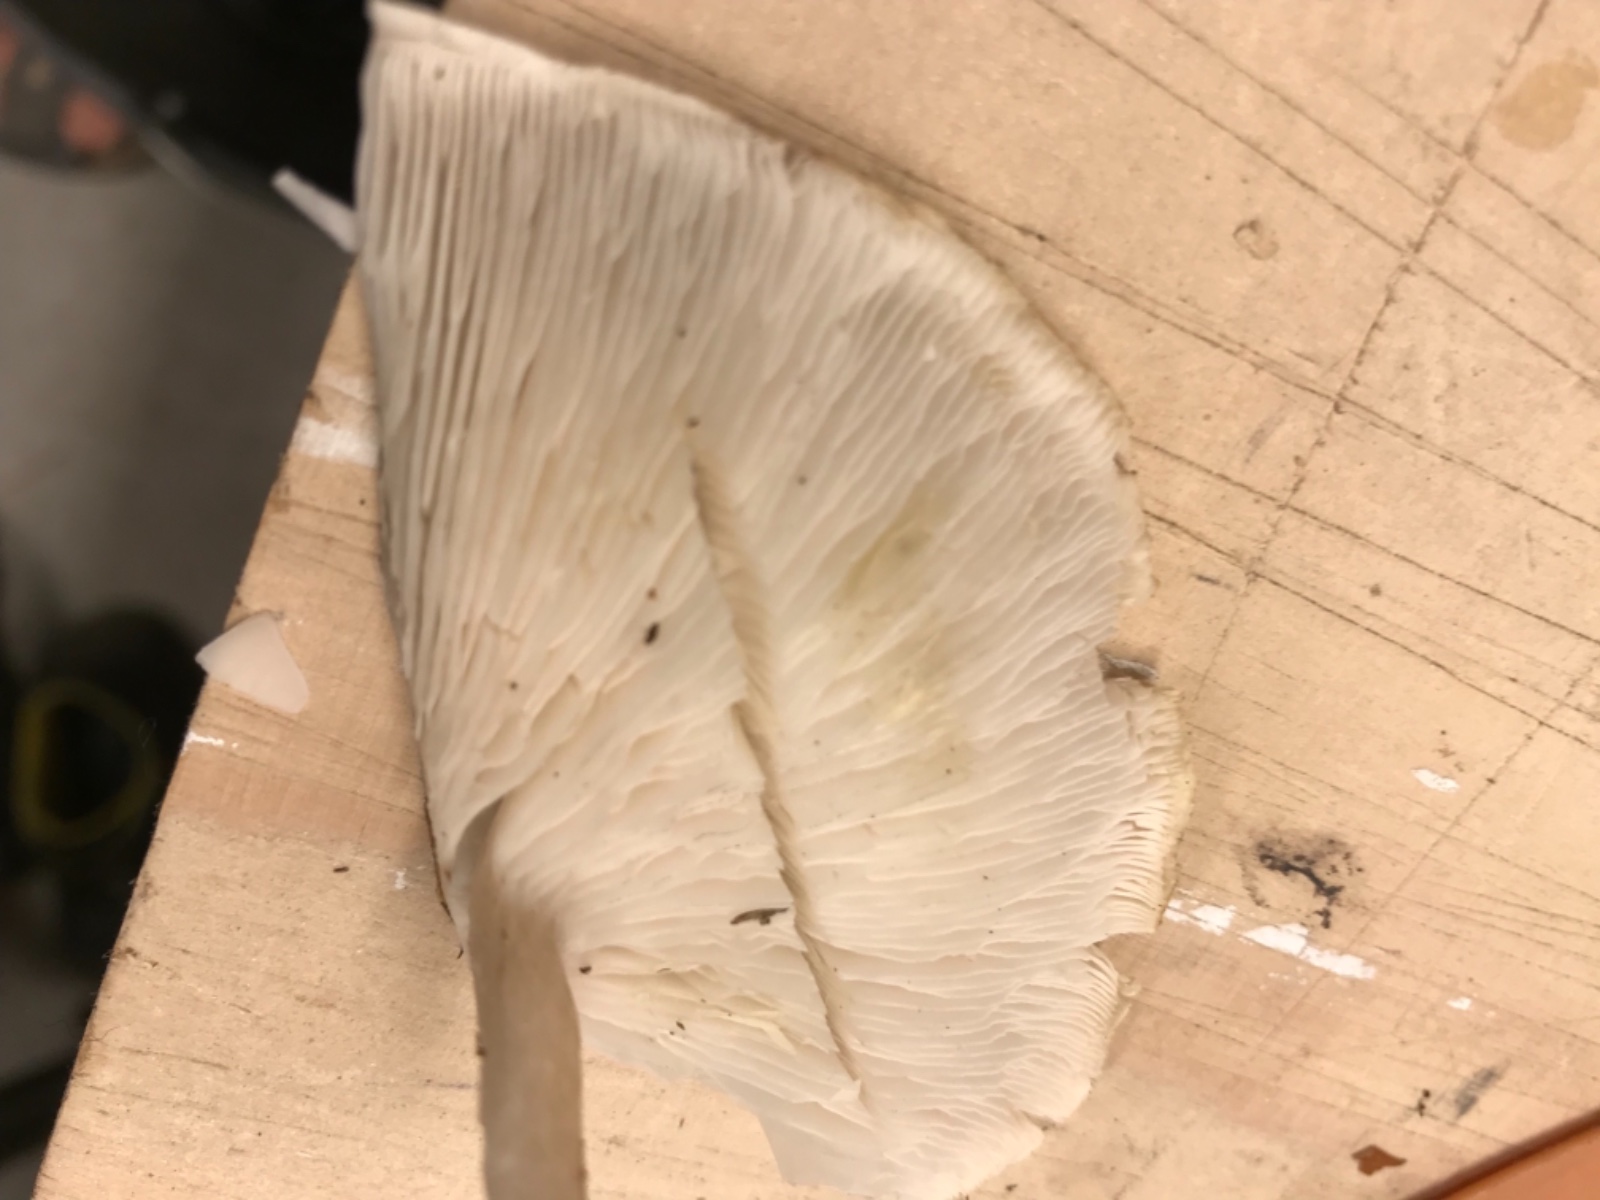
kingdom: Fungi
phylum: Basidiomycota
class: Agaricomycetes
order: Agaricales
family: Tricholomataceae
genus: Tricholoma
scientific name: Tricholoma scalpturatum
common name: gulplettet ridderhat
